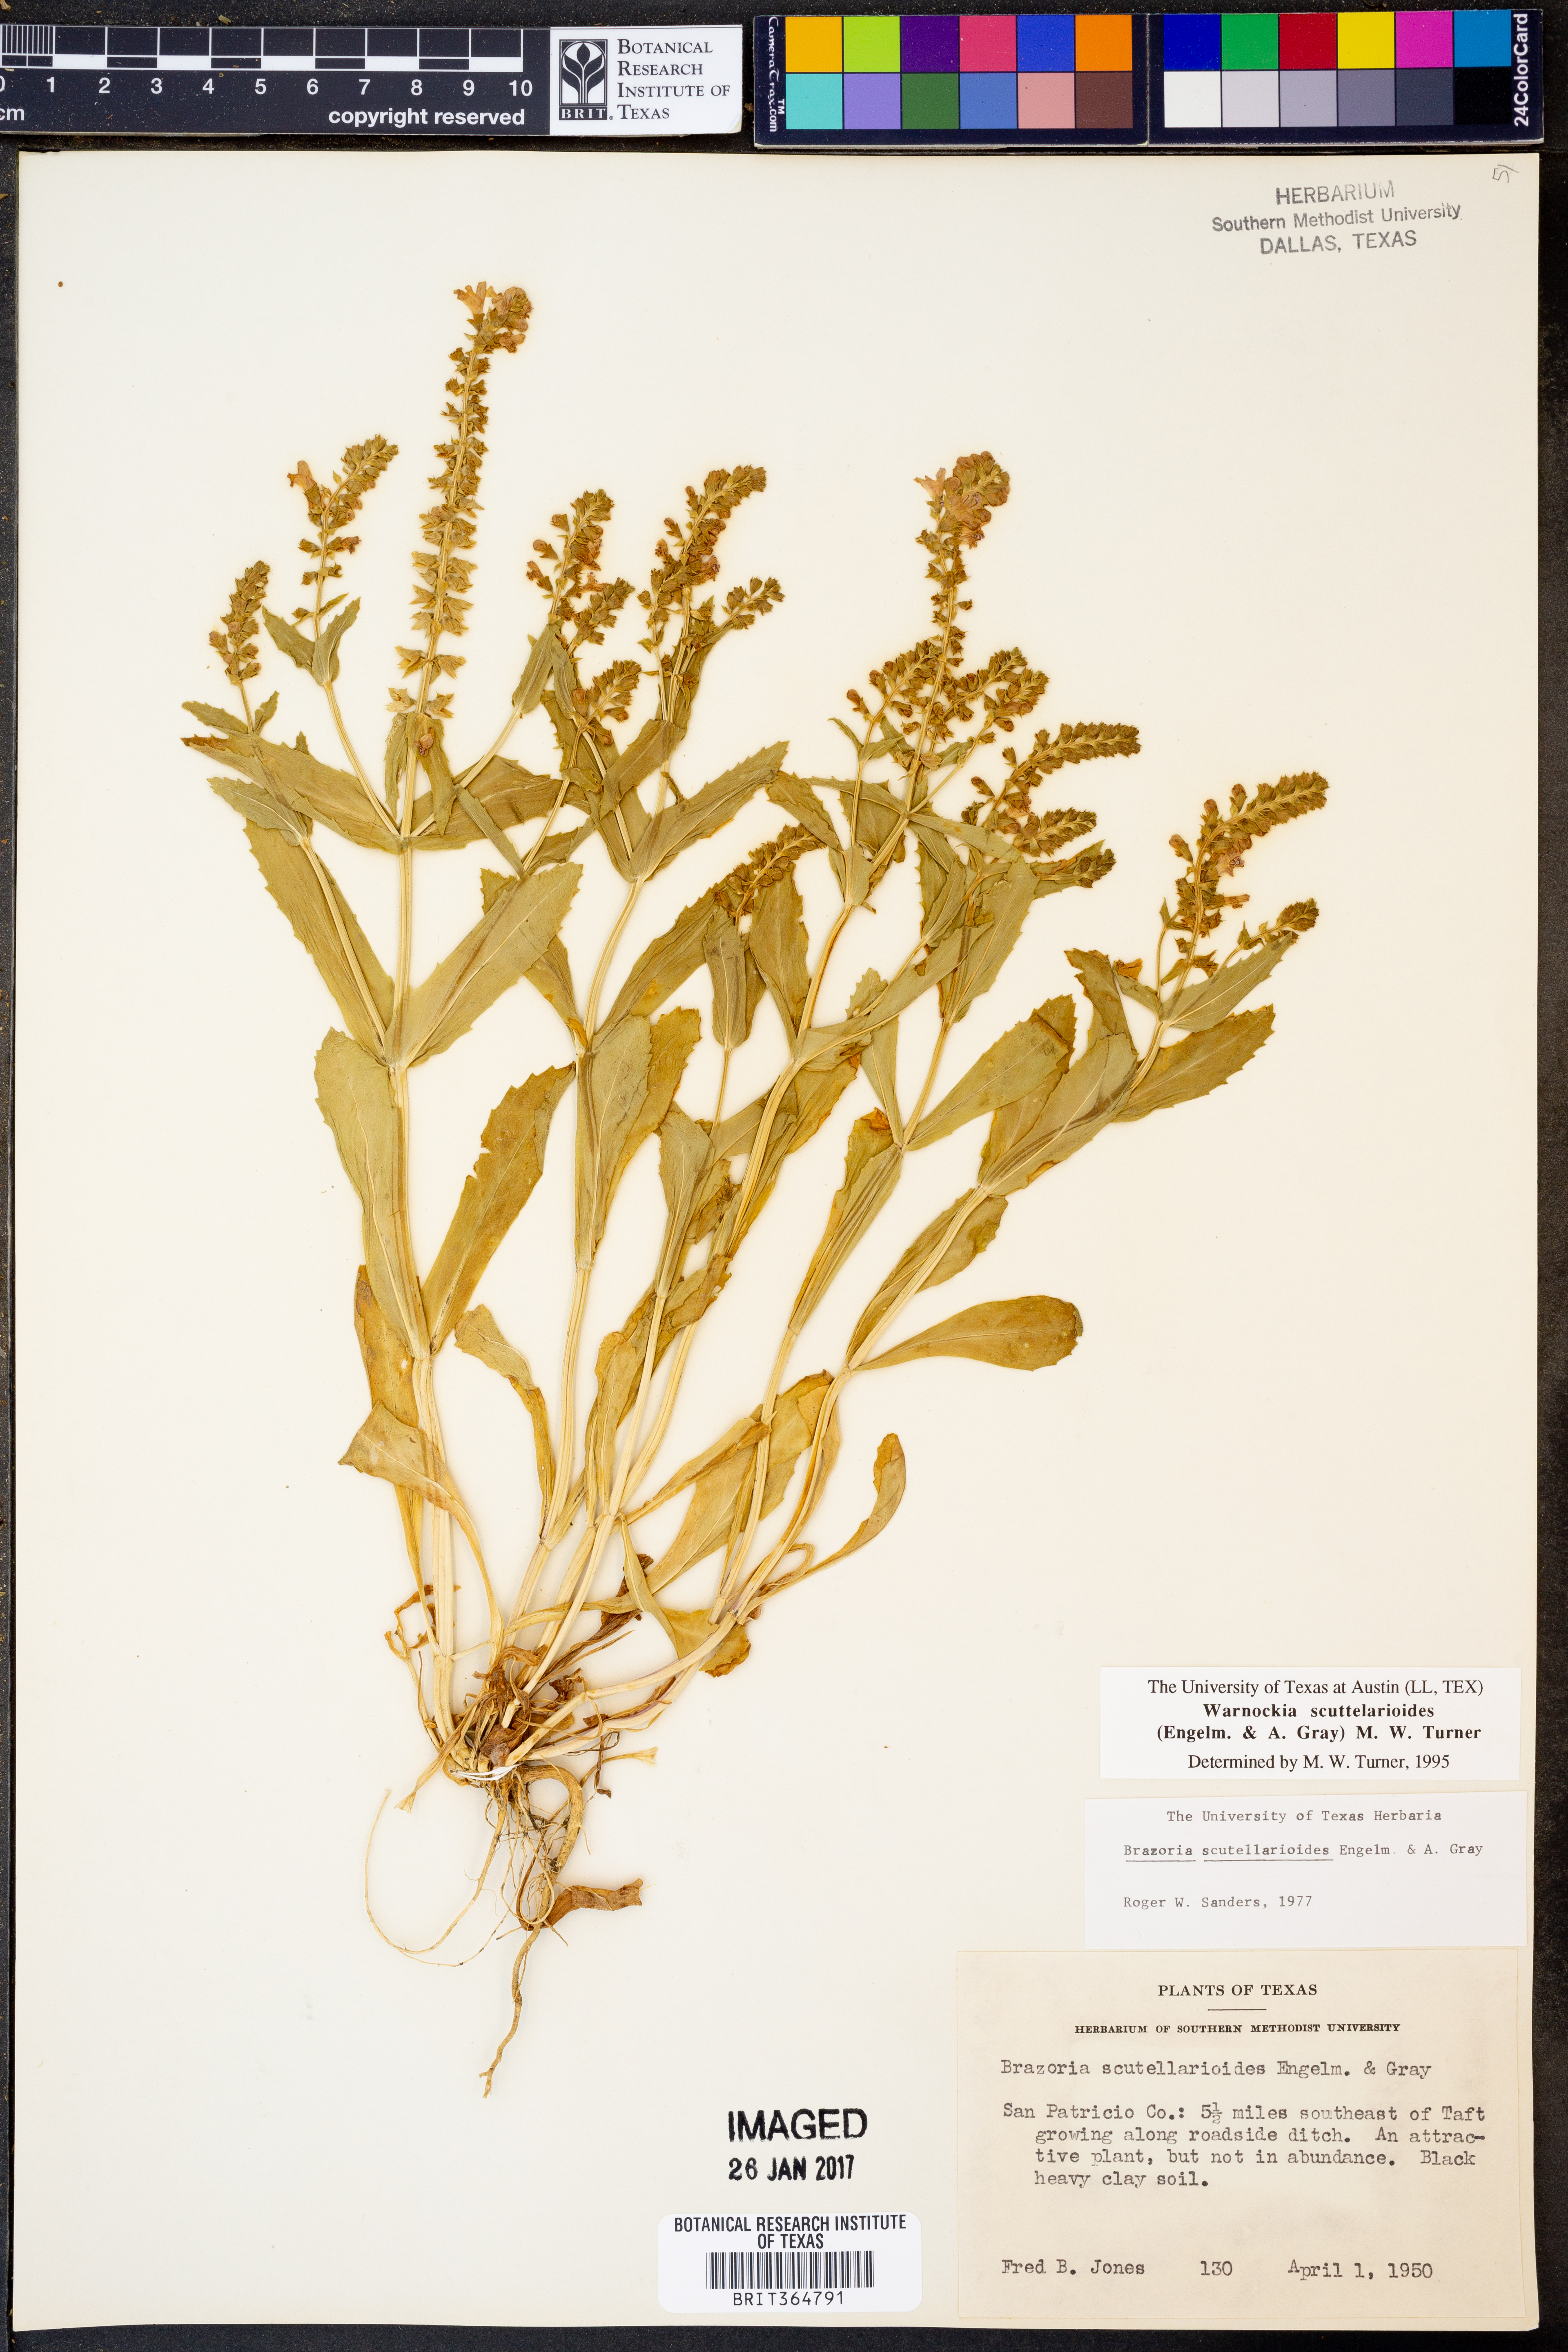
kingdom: Plantae
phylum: Tracheophyta
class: Magnoliopsida
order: Lamiales
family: Lamiaceae
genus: Warnockia
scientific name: Warnockia scutellarioides
